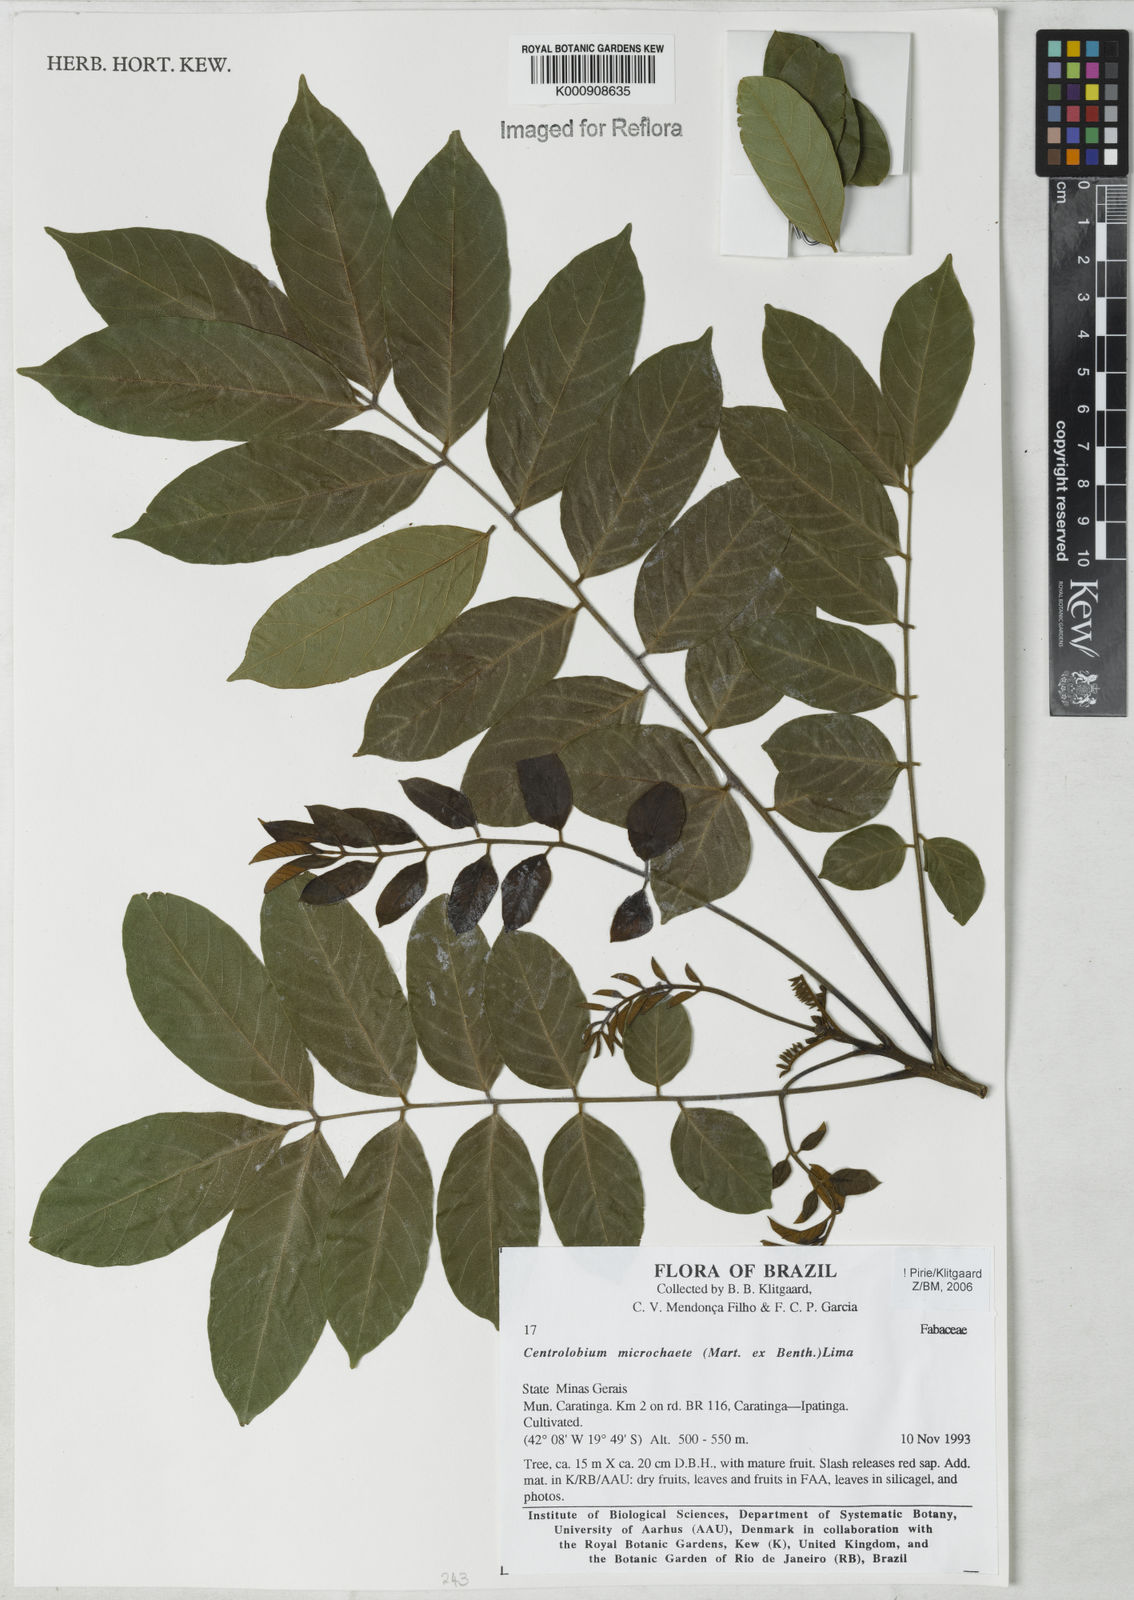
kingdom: Plantae
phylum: Tracheophyta
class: Magnoliopsida
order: Fabales
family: Fabaceae
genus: Centrolobium
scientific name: Centrolobium microchaete
